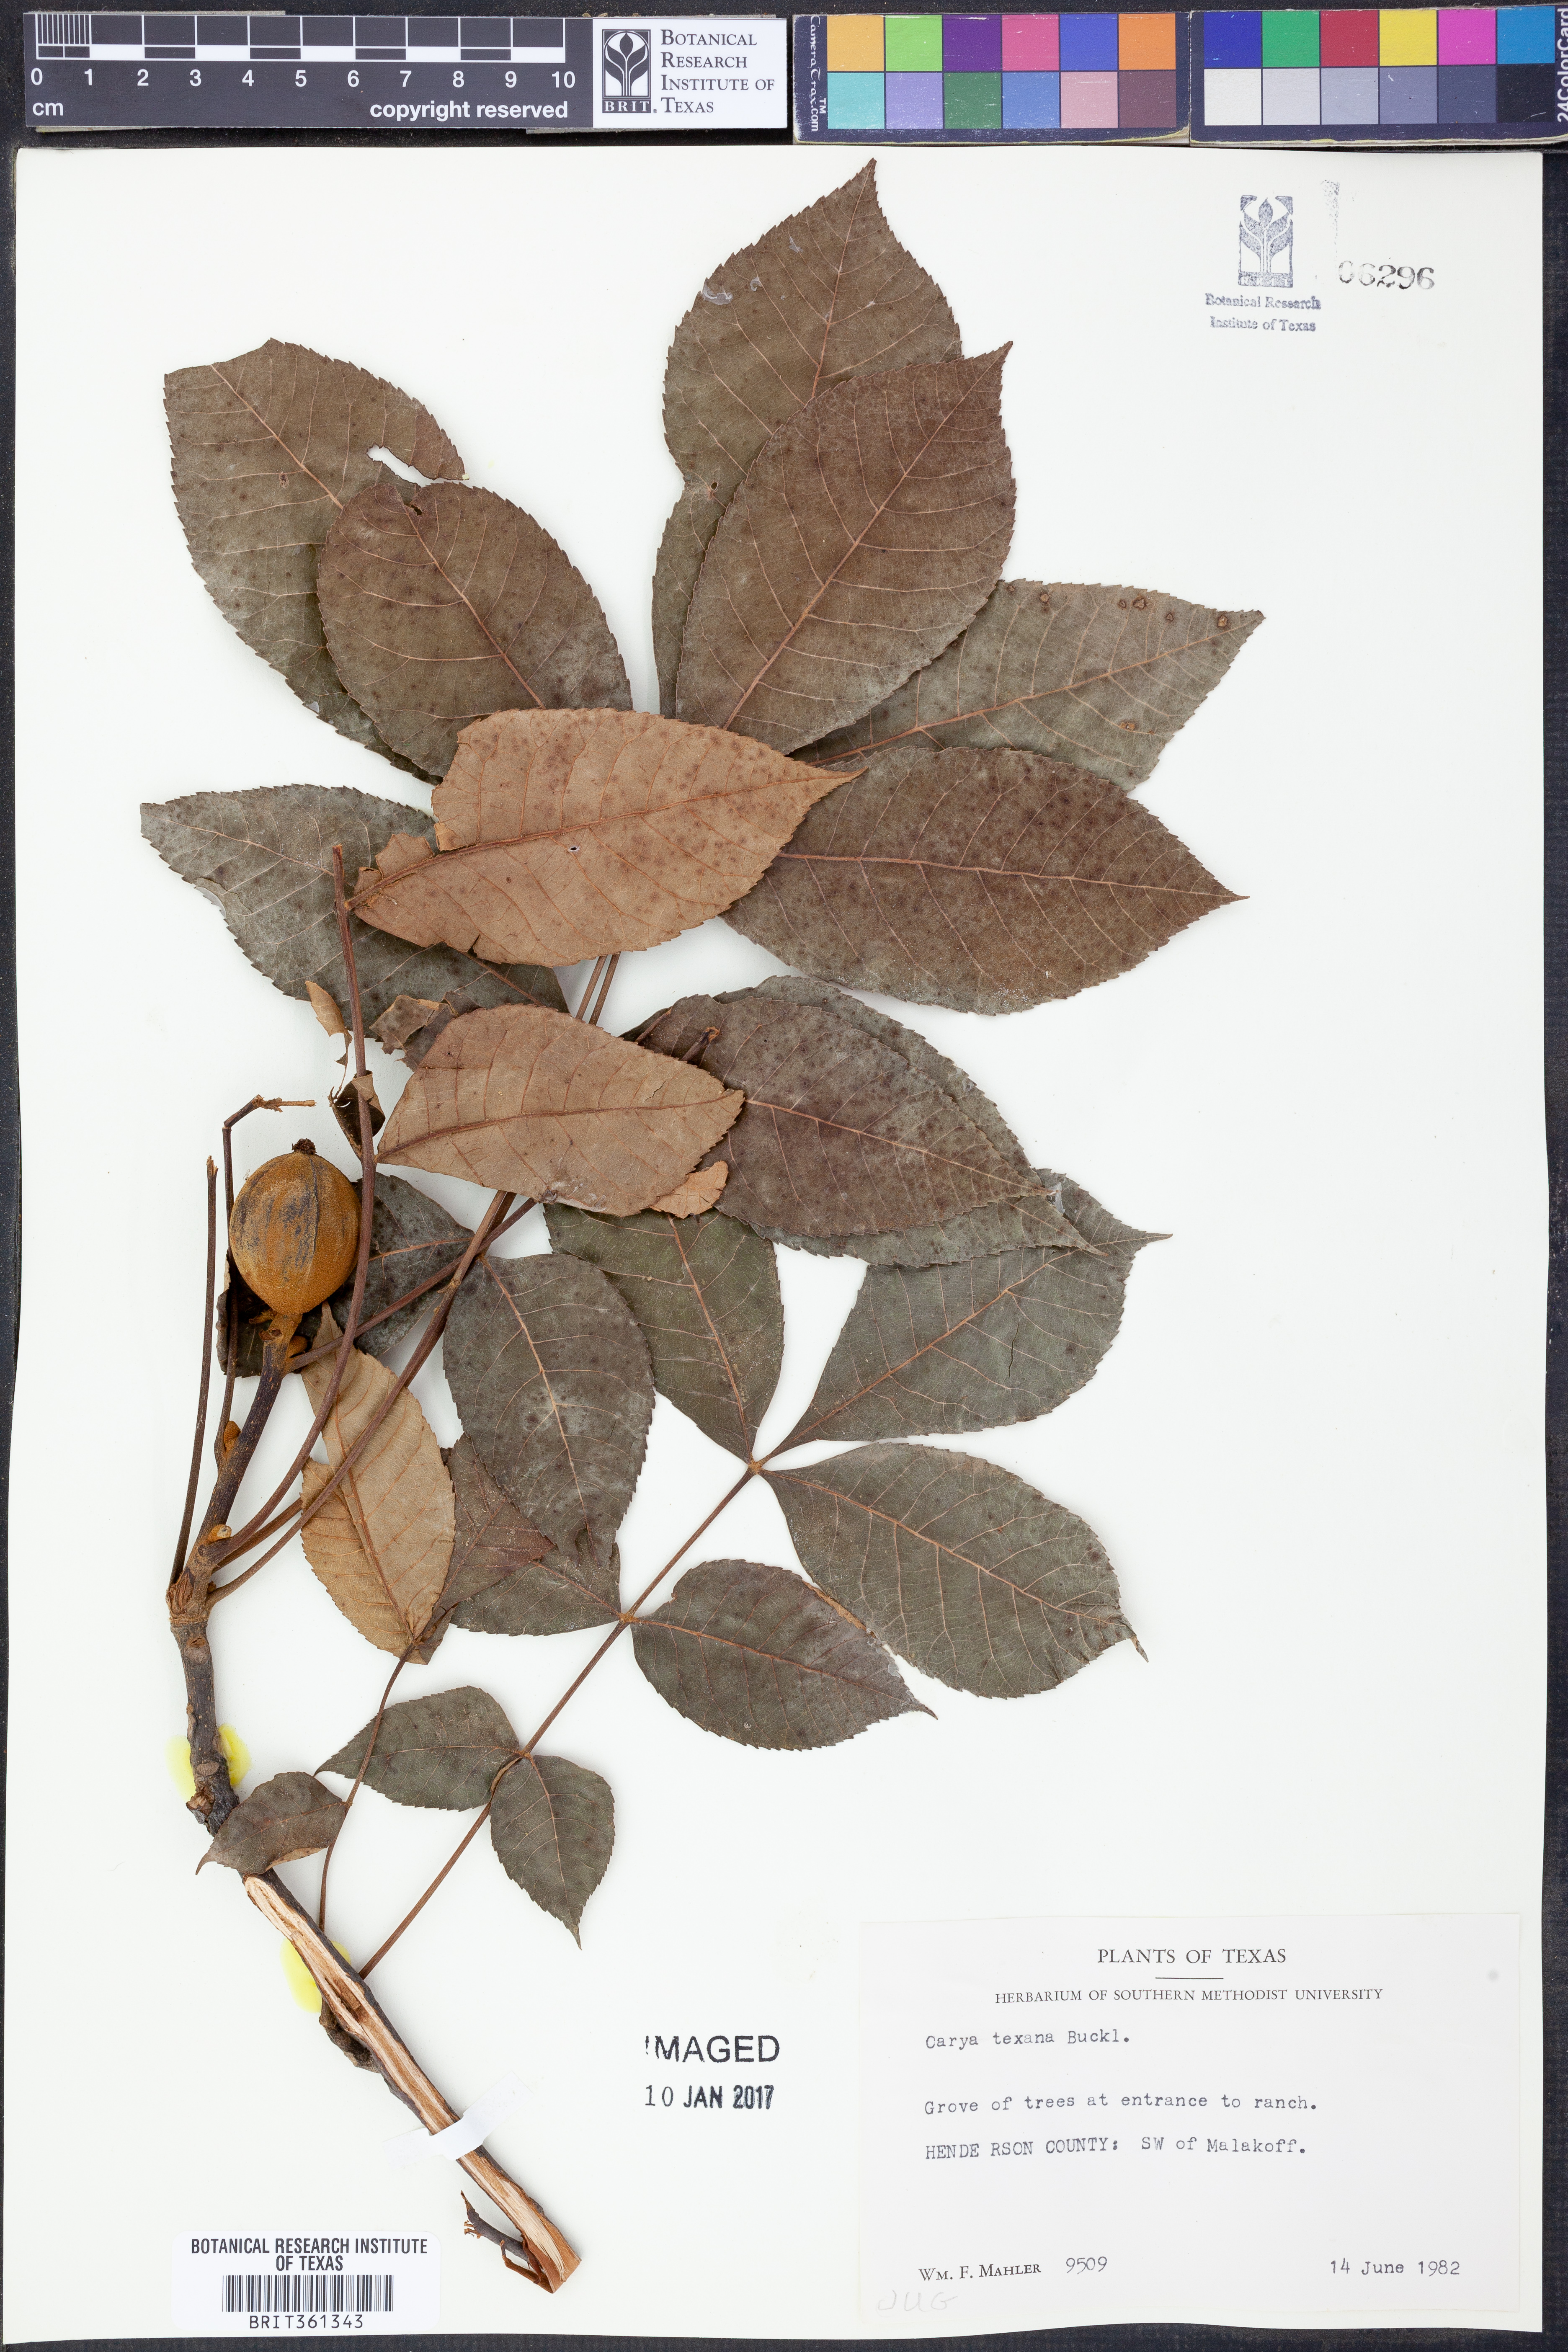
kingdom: Plantae
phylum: Tracheophyta
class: Magnoliopsida
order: Fagales
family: Juglandaceae
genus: Carya
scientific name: Carya texana
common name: Black hickory
